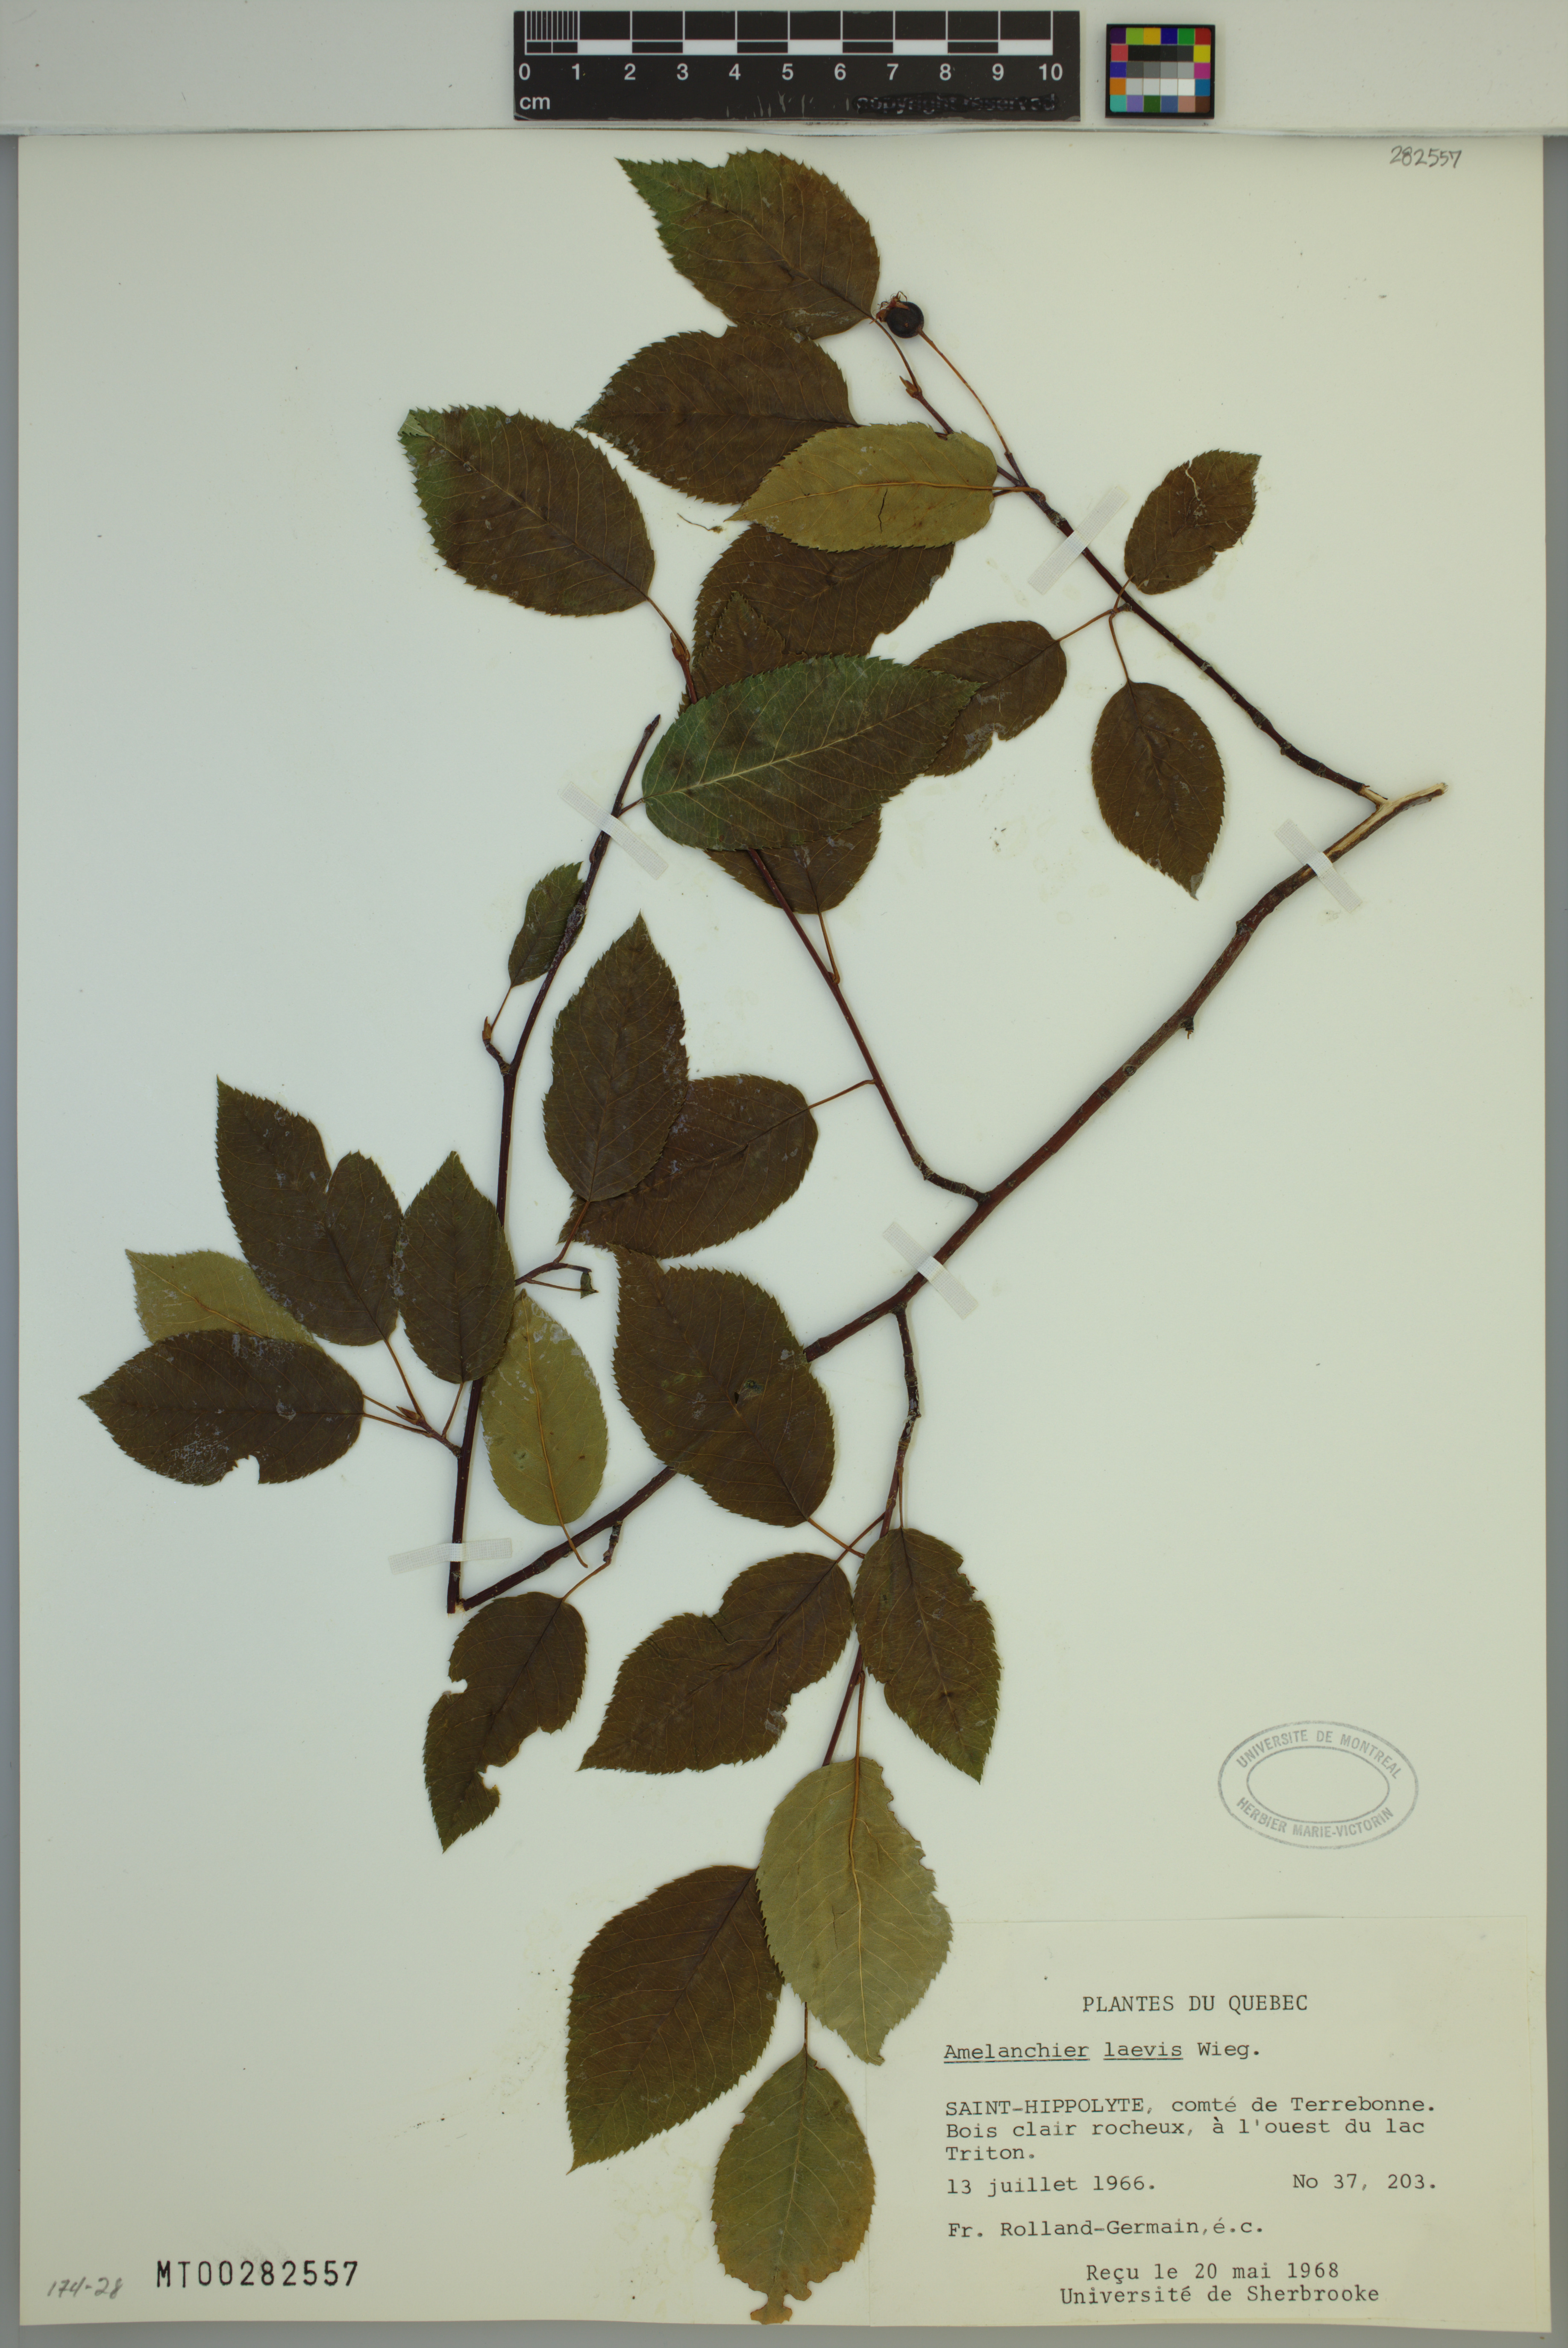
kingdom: Plantae
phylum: Tracheophyta
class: Magnoliopsida
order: Rosales
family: Rosaceae
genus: Amelanchier
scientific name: Amelanchier laevis
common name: Allegheny serviceberry
